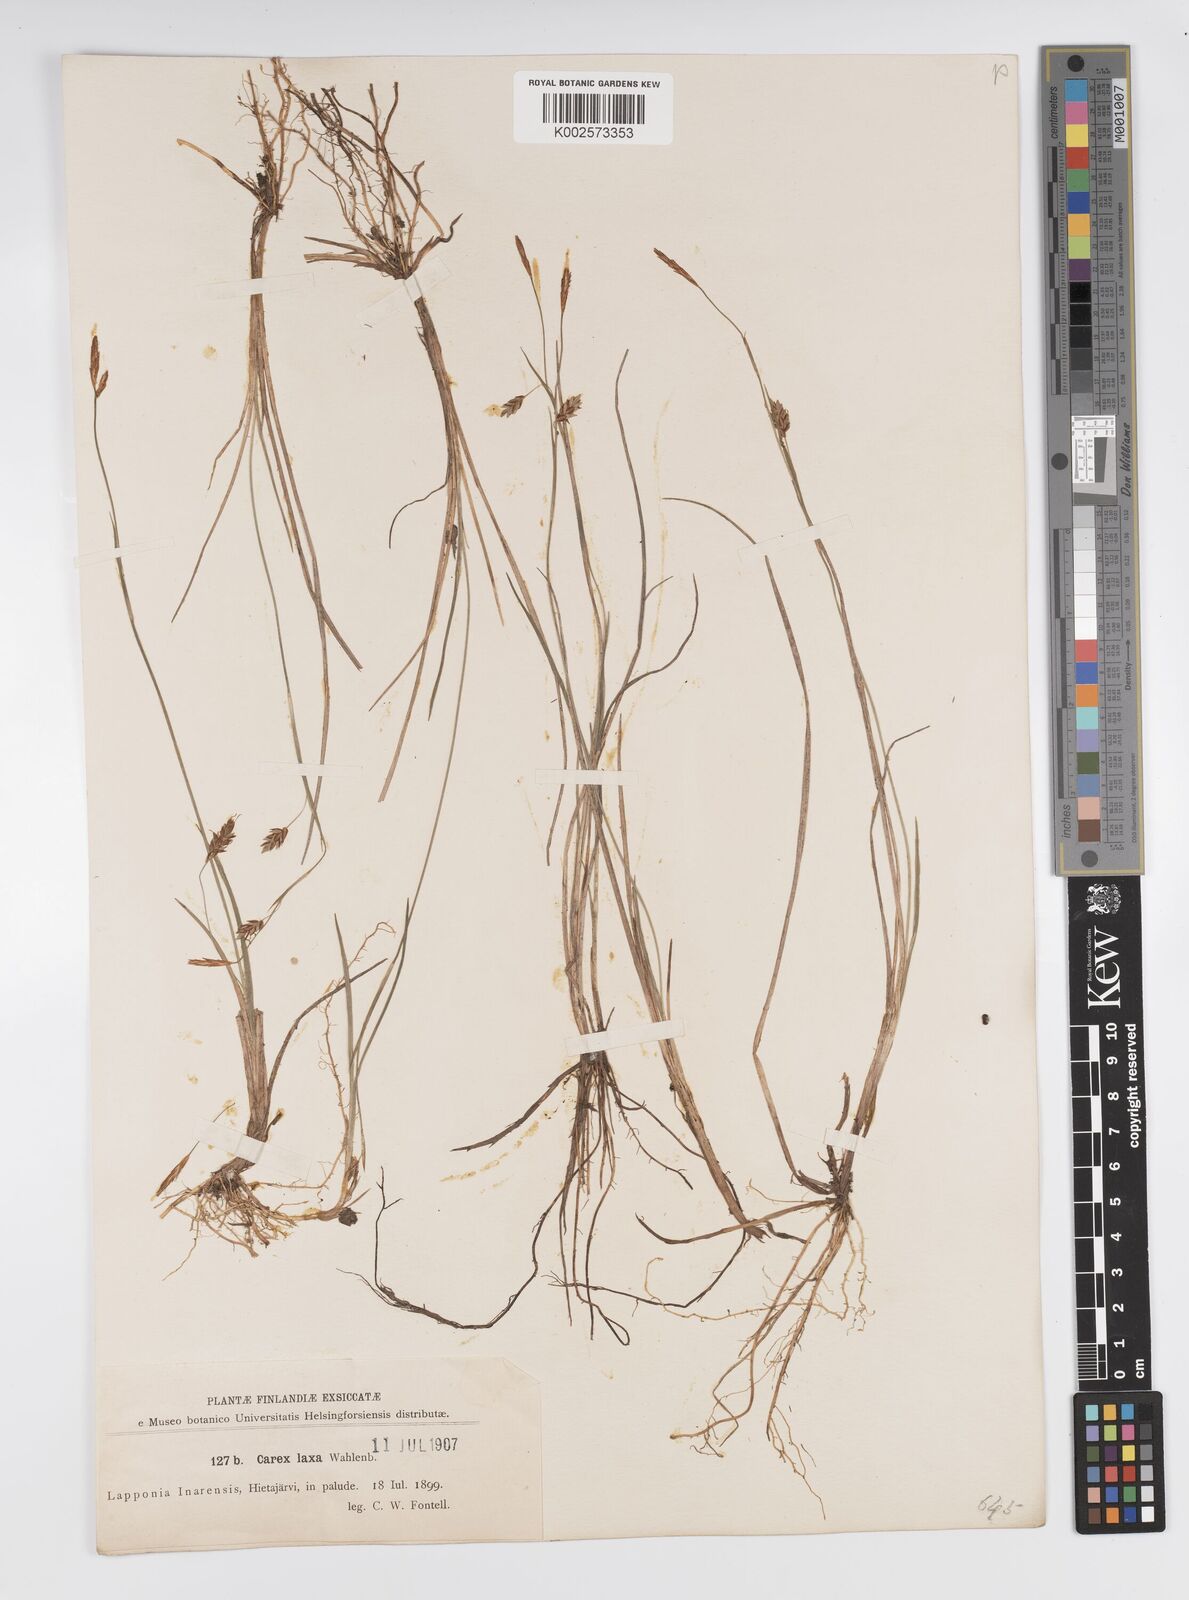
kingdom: Plantae
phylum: Tracheophyta
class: Liliopsida
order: Poales
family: Cyperaceae
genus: Carex
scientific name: Carex laxa
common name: Weak sedge
